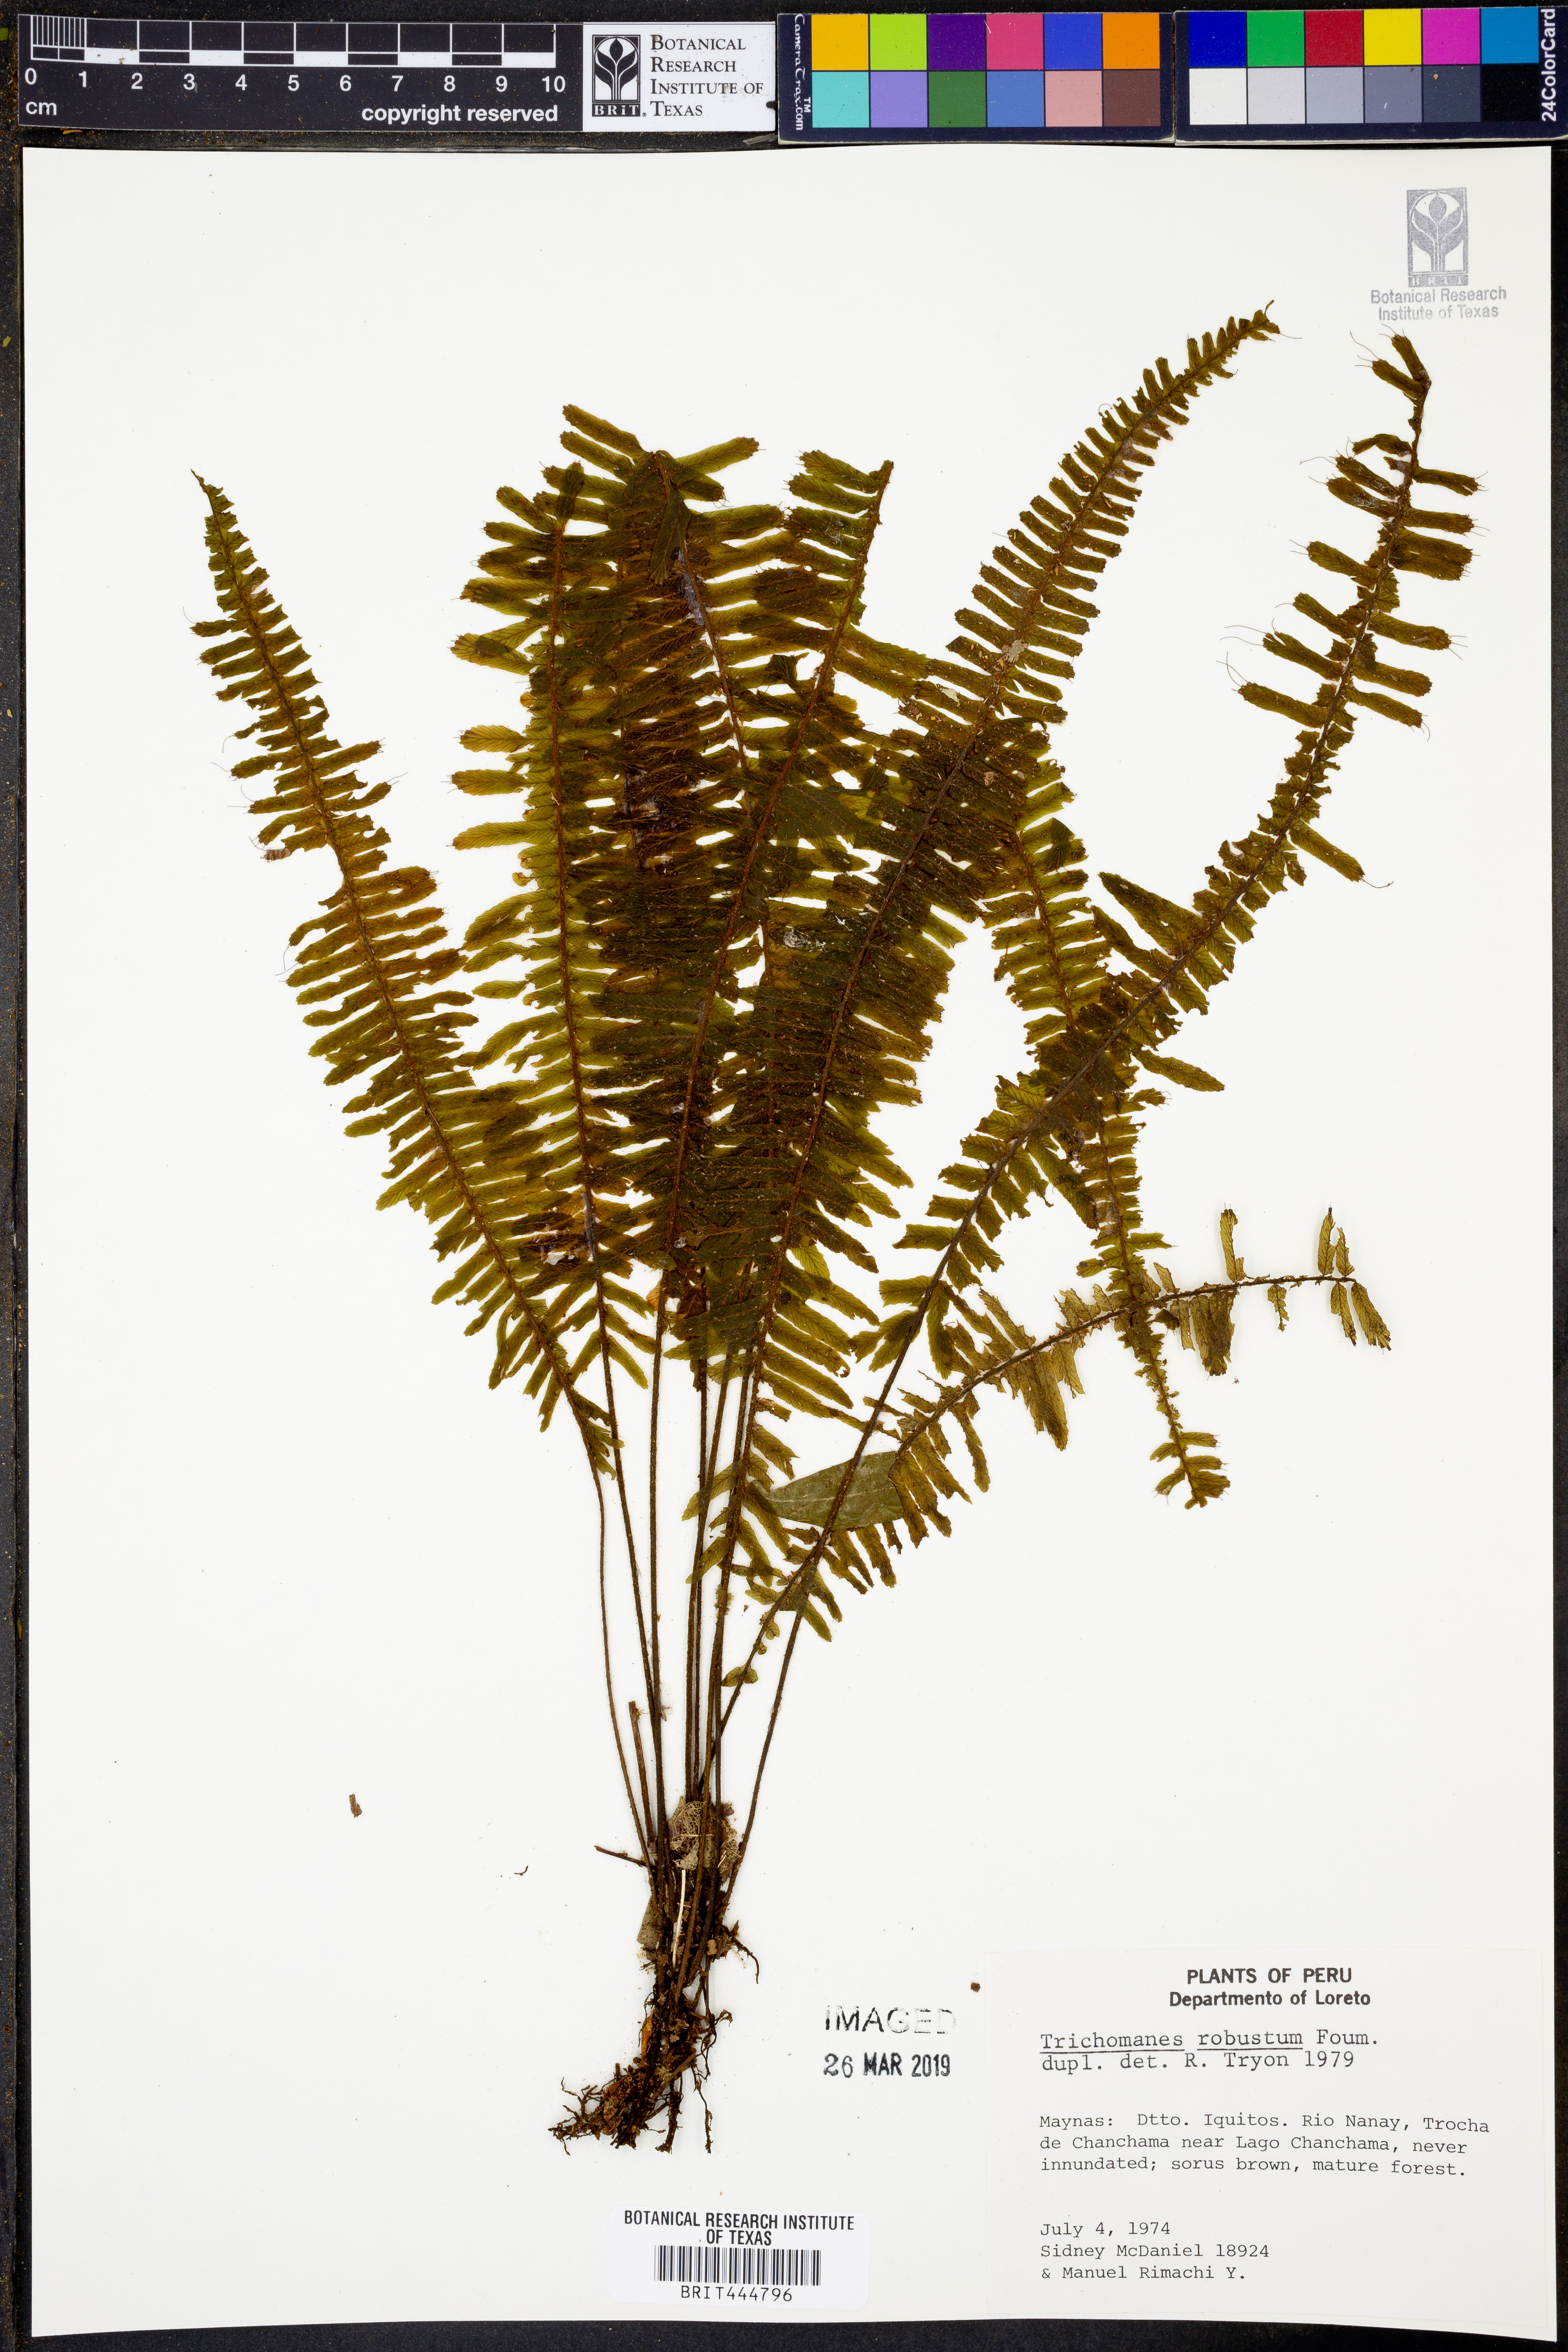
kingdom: Plantae
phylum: Tracheophyta
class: Polypodiopsida
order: Hymenophyllales
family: Hymenophyllaceae
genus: Trichomanes
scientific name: Trichomanes robustum
